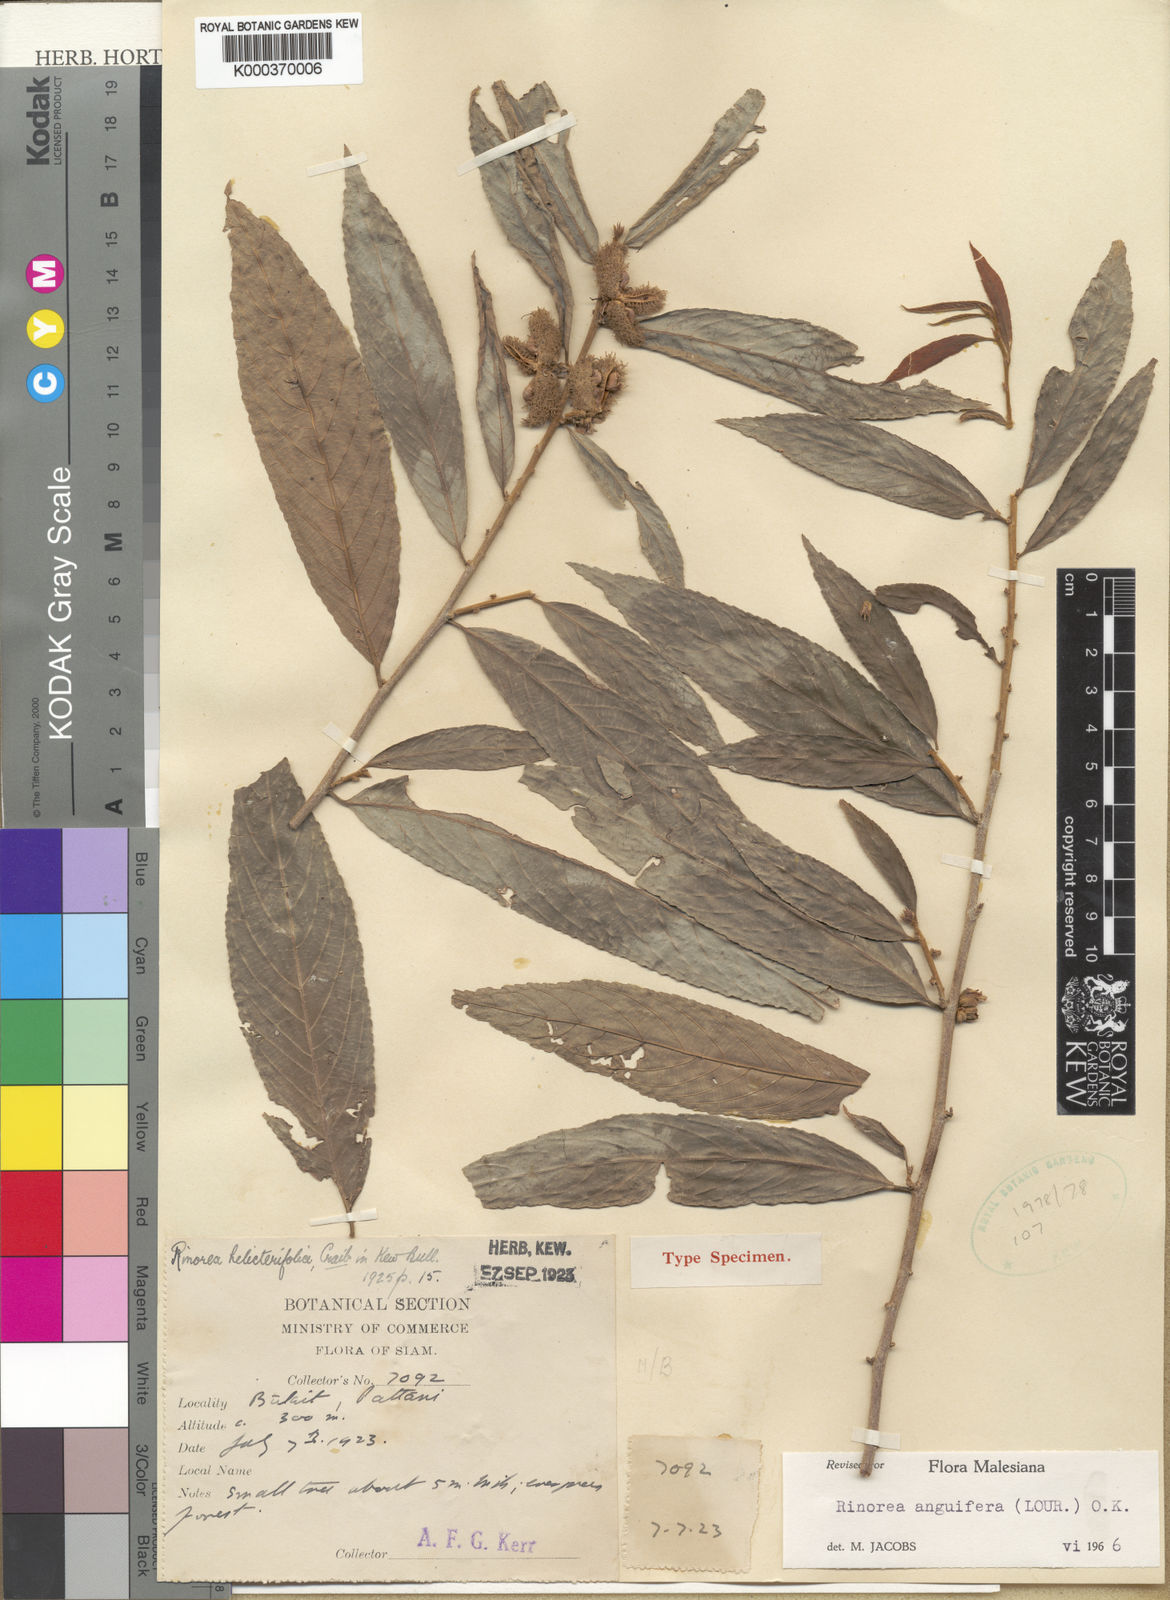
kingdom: Plantae
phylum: Tracheophyta
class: Magnoliopsida
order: Malpighiales
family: Violaceae
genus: Rinorea
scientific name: Rinorea anguifera
